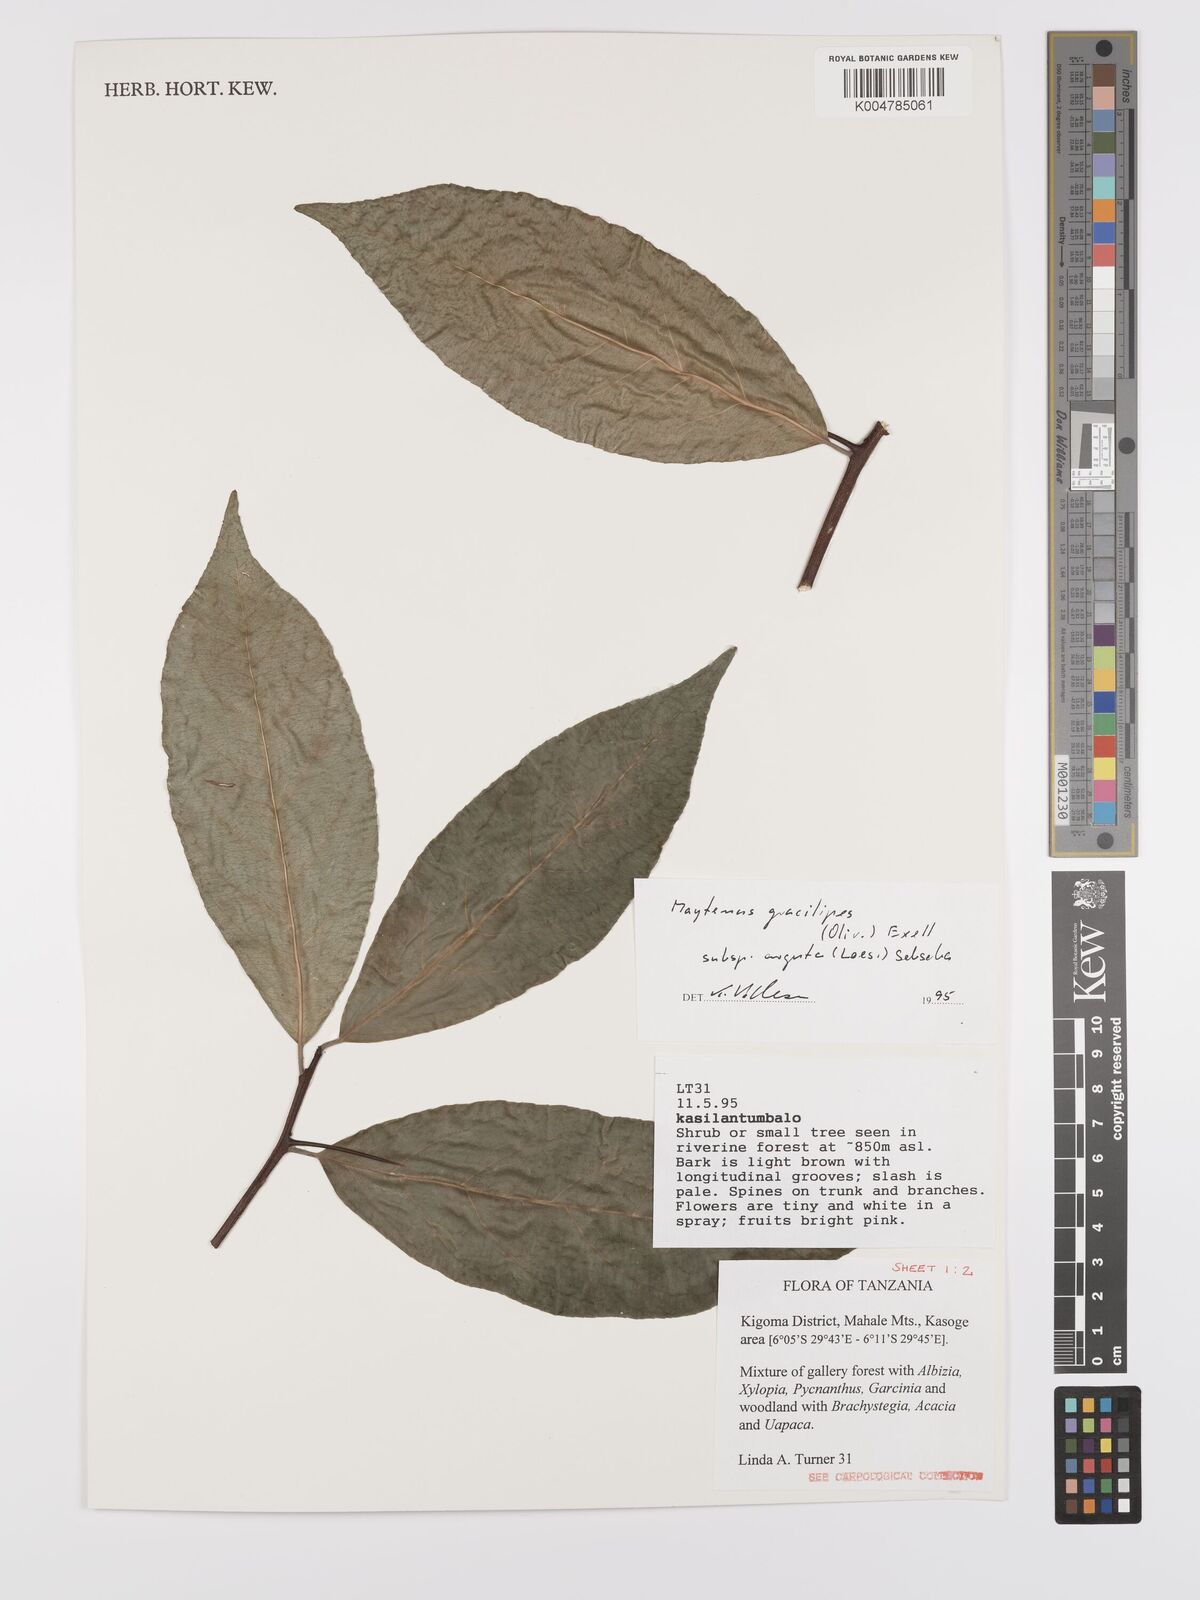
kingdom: Plantae
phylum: Tracheophyta
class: Magnoliopsida
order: Celastrales
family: Celastraceae
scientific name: Celastraceae
